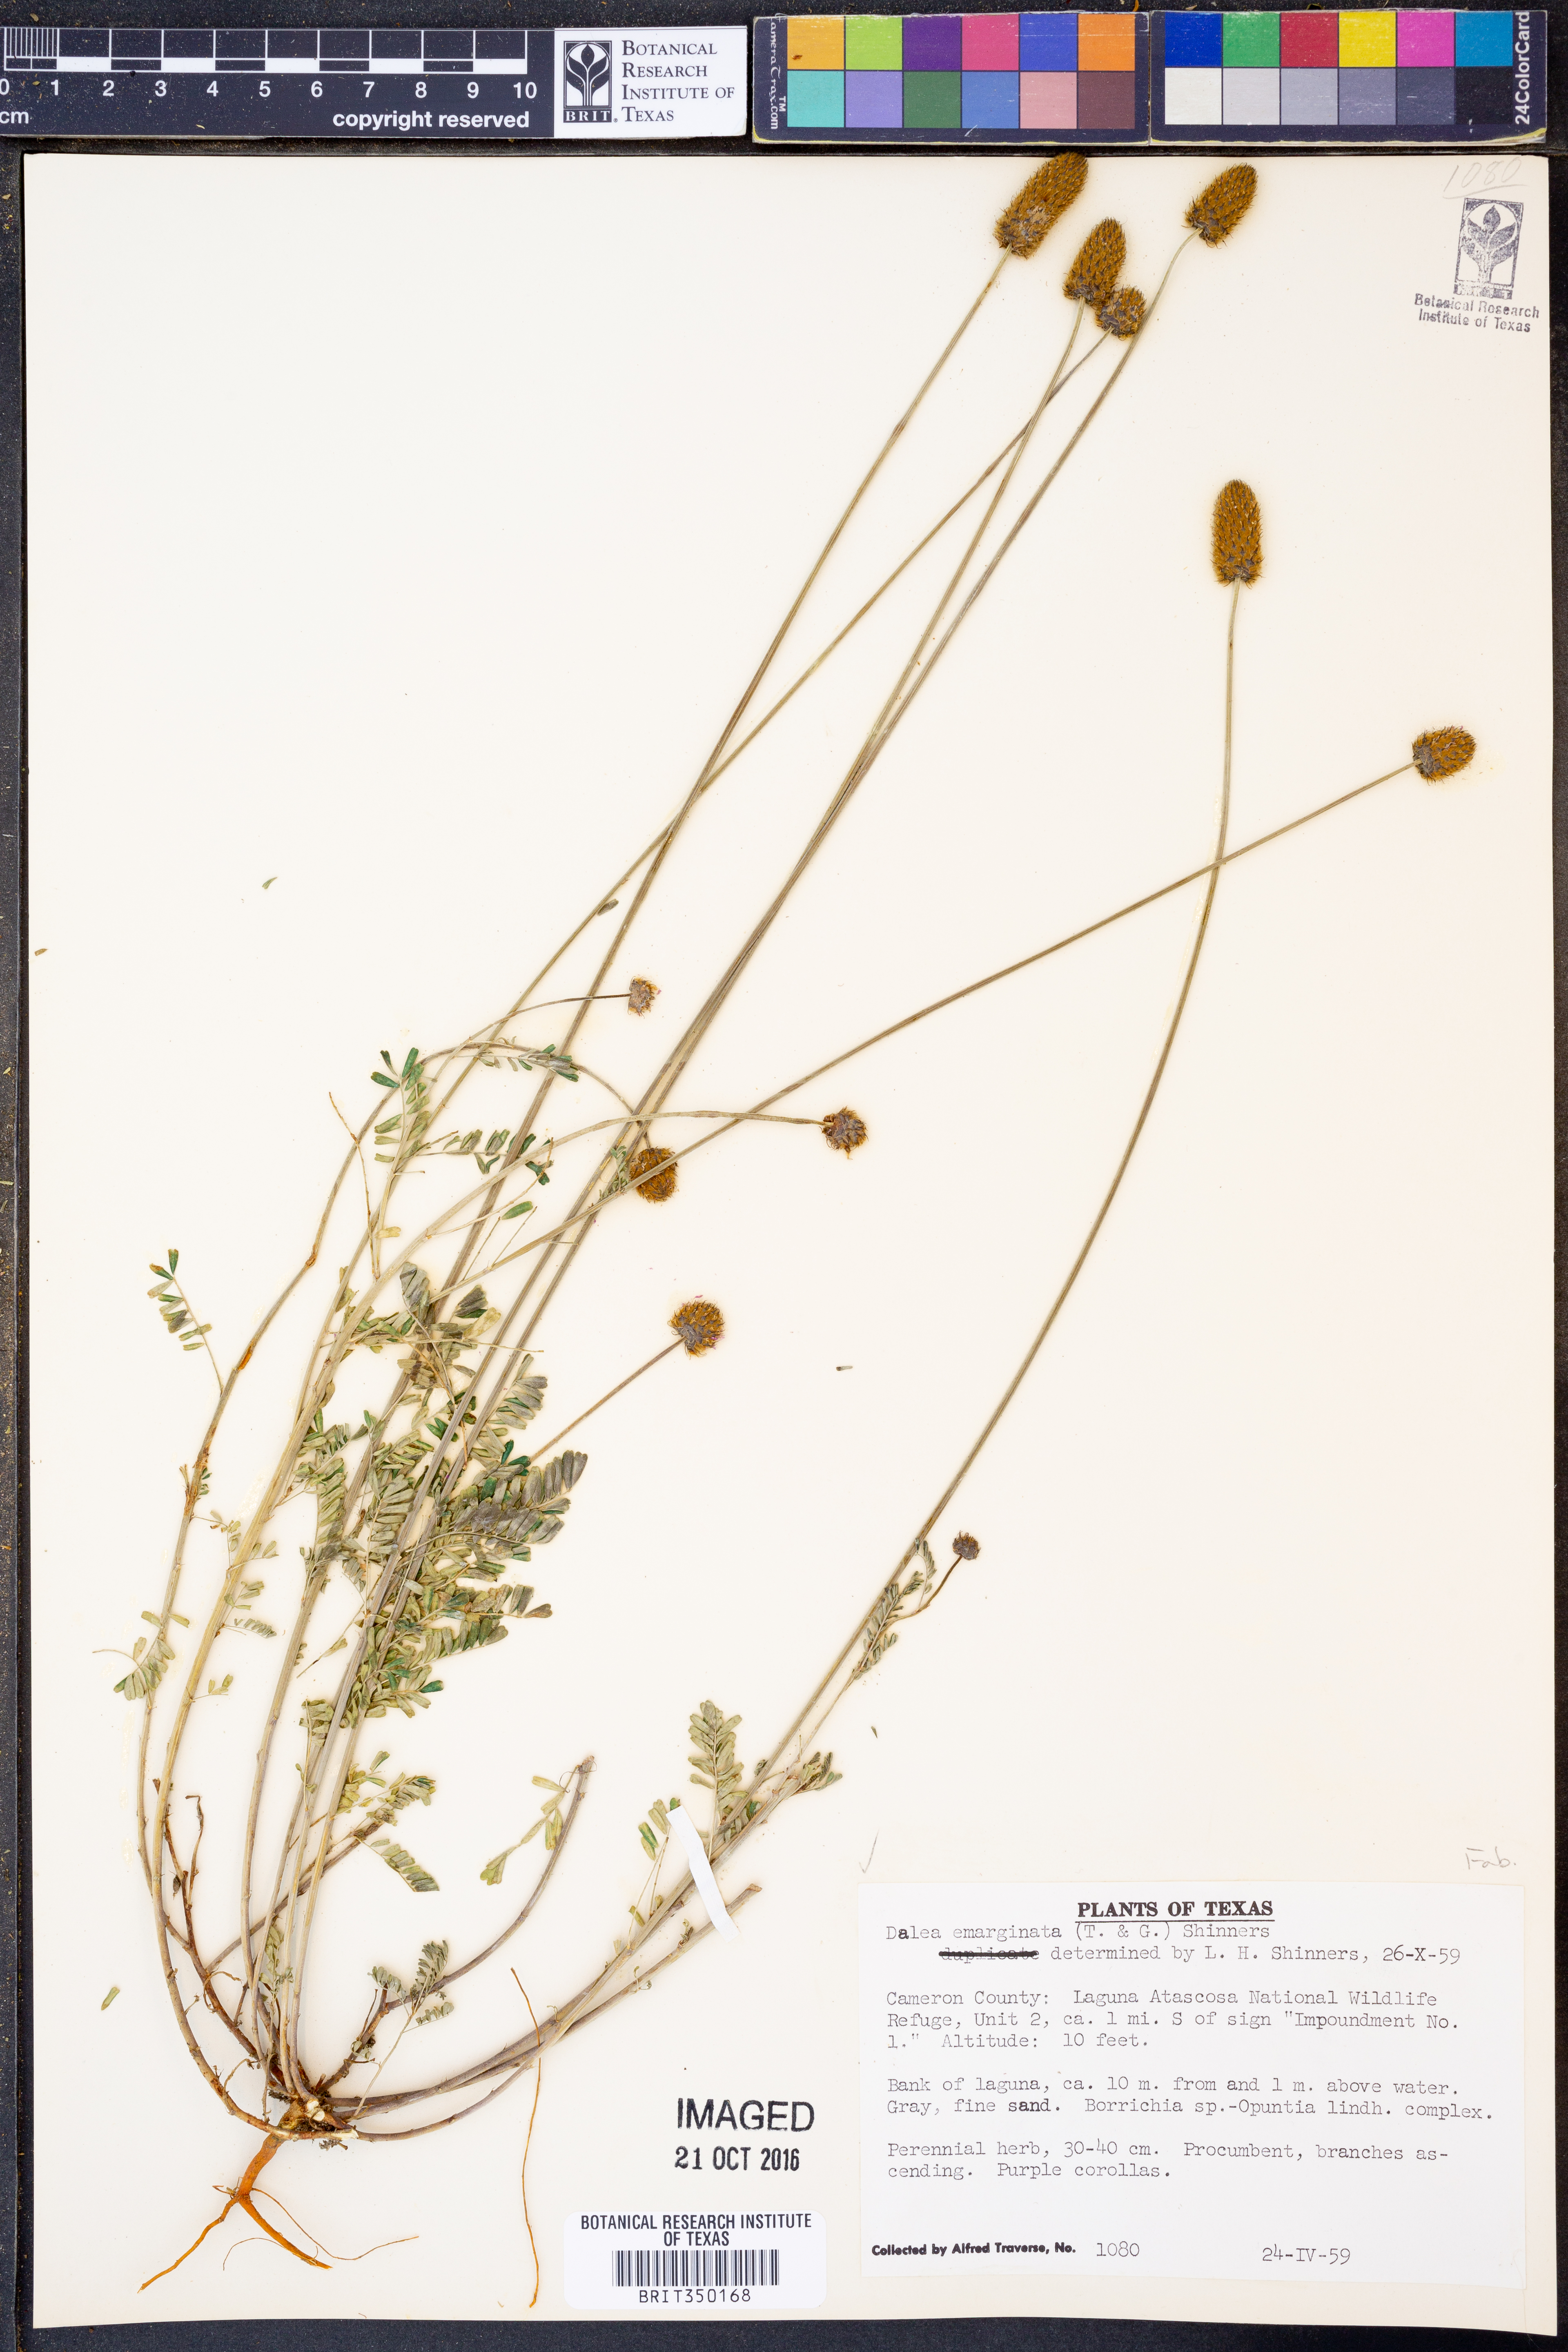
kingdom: Plantae
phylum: Tracheophyta
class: Magnoliopsida
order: Fabales
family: Fabaceae
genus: Dalea
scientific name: Dalea emarginata
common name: Wedgeleaf prairie clover
